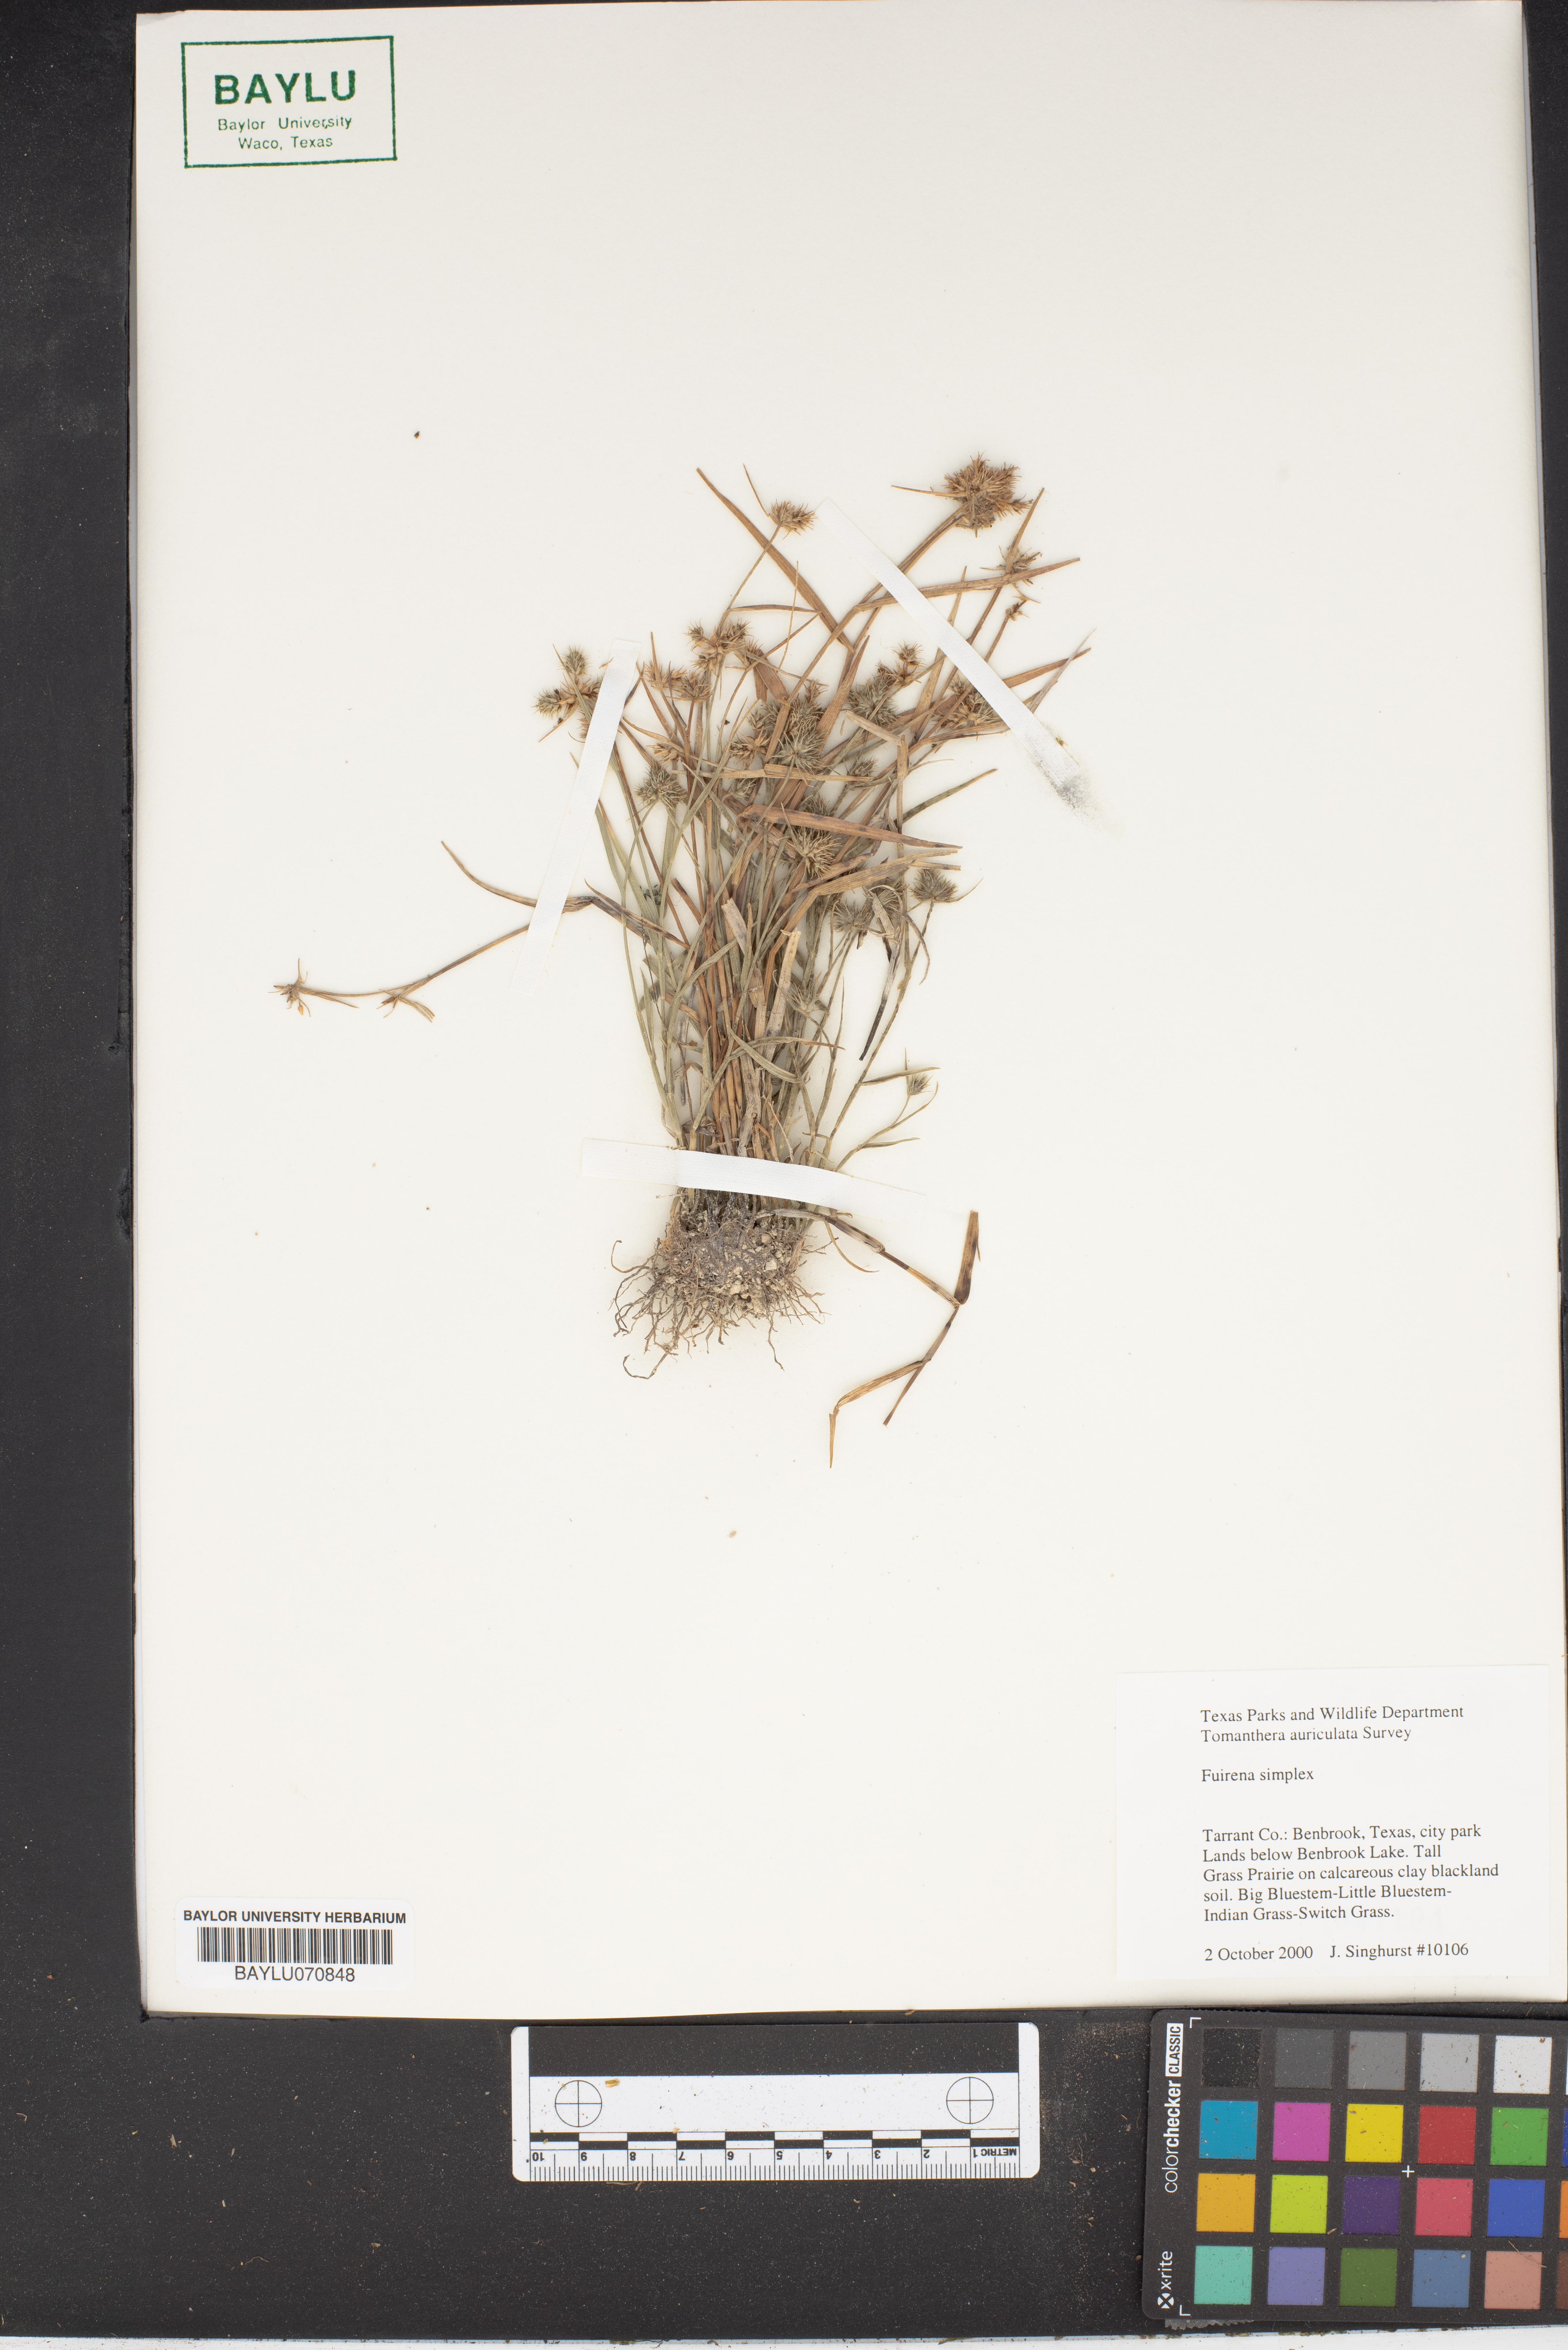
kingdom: Plantae
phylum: Tracheophyta
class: Liliopsida
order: Poales
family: Cyperaceae
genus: Fuirena
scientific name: Fuirena simplex
